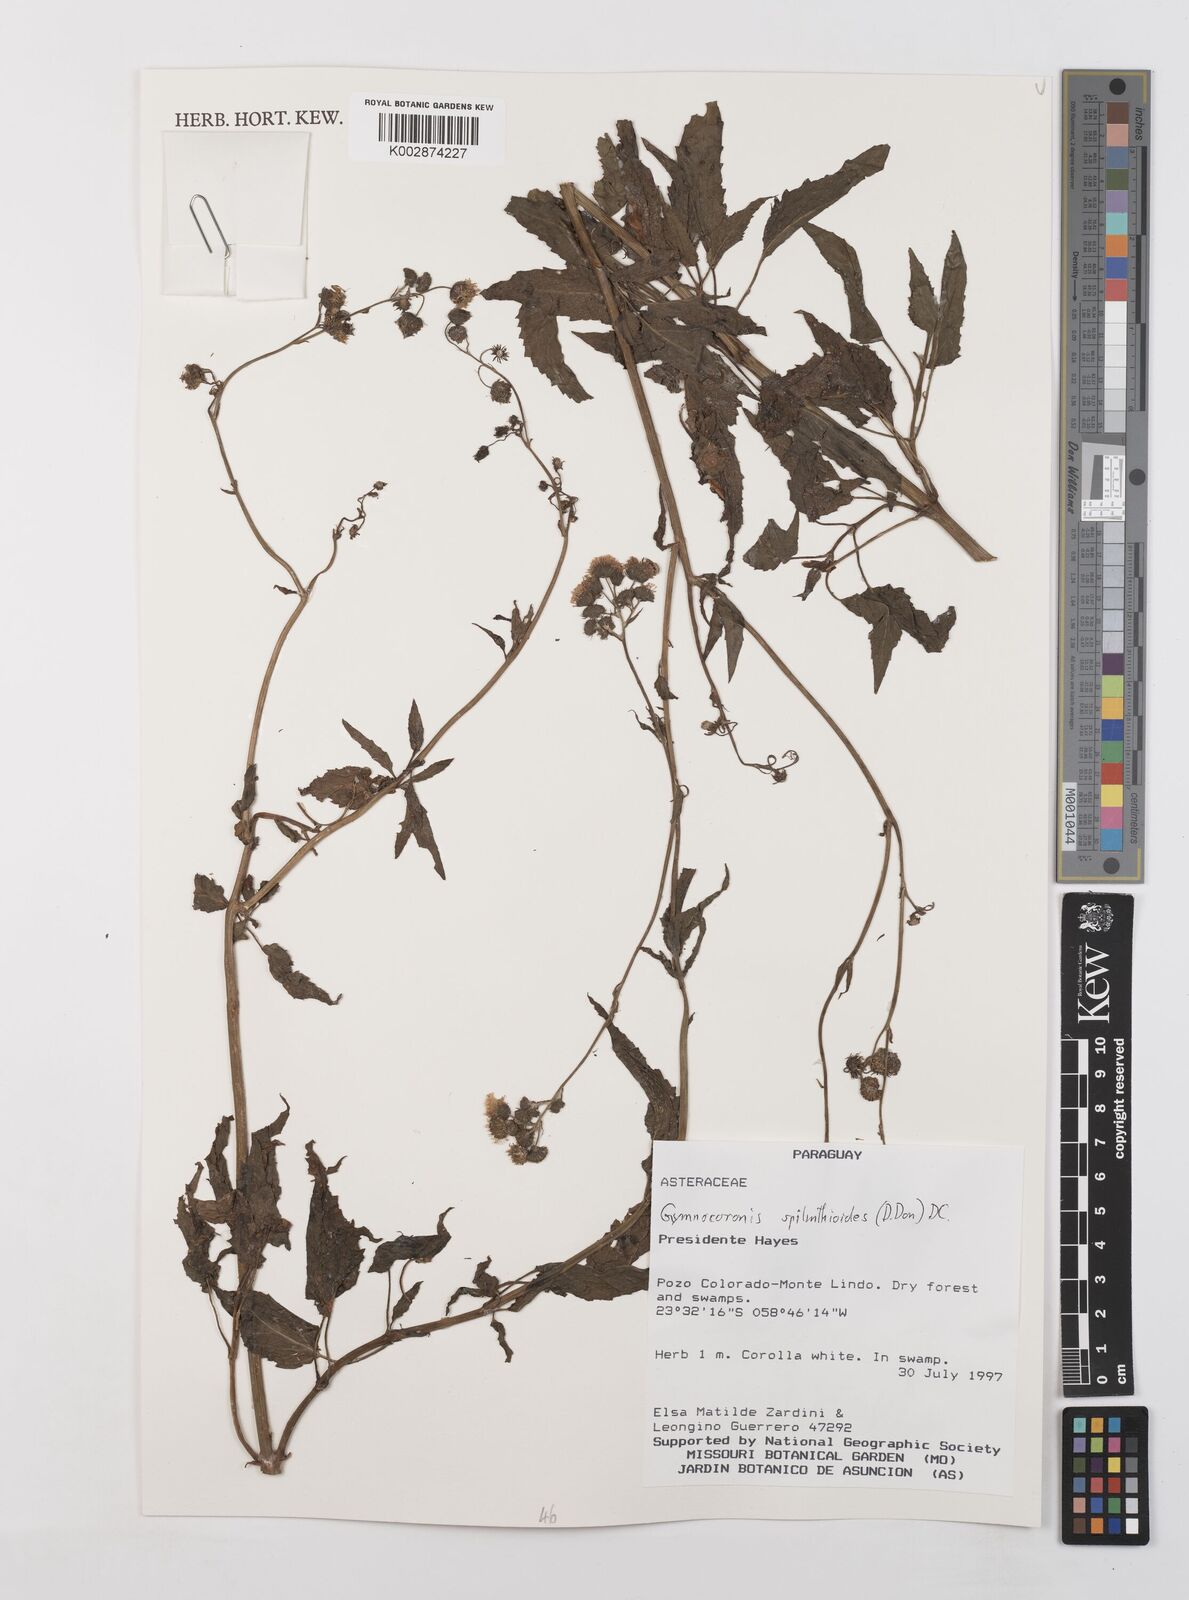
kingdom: Plantae
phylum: Tracheophyta
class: Magnoliopsida
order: Asterales
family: Asteraceae
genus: Gymnocoronis
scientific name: Gymnocoronis spilanthoides
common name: Senegal teaplant
